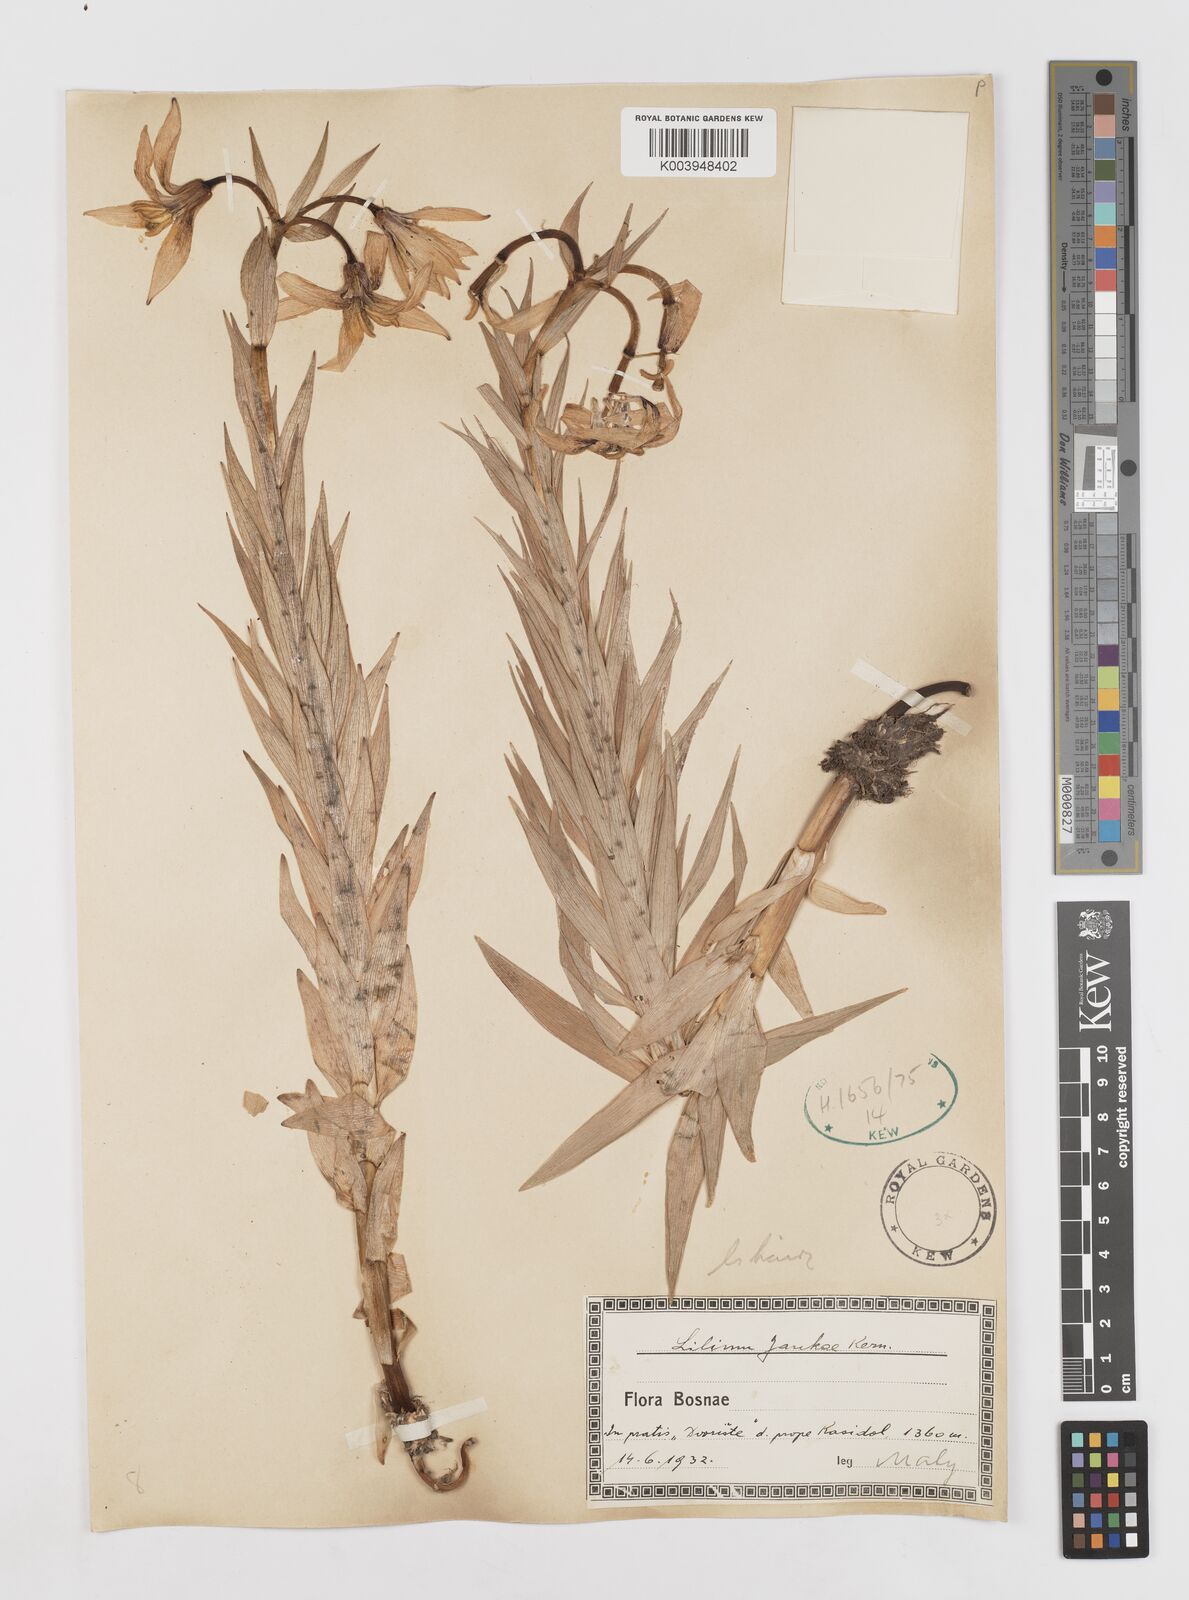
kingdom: Plantae
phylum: Tracheophyta
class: Liliopsida
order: Liliales
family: Liliaceae
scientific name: Liliaceae
